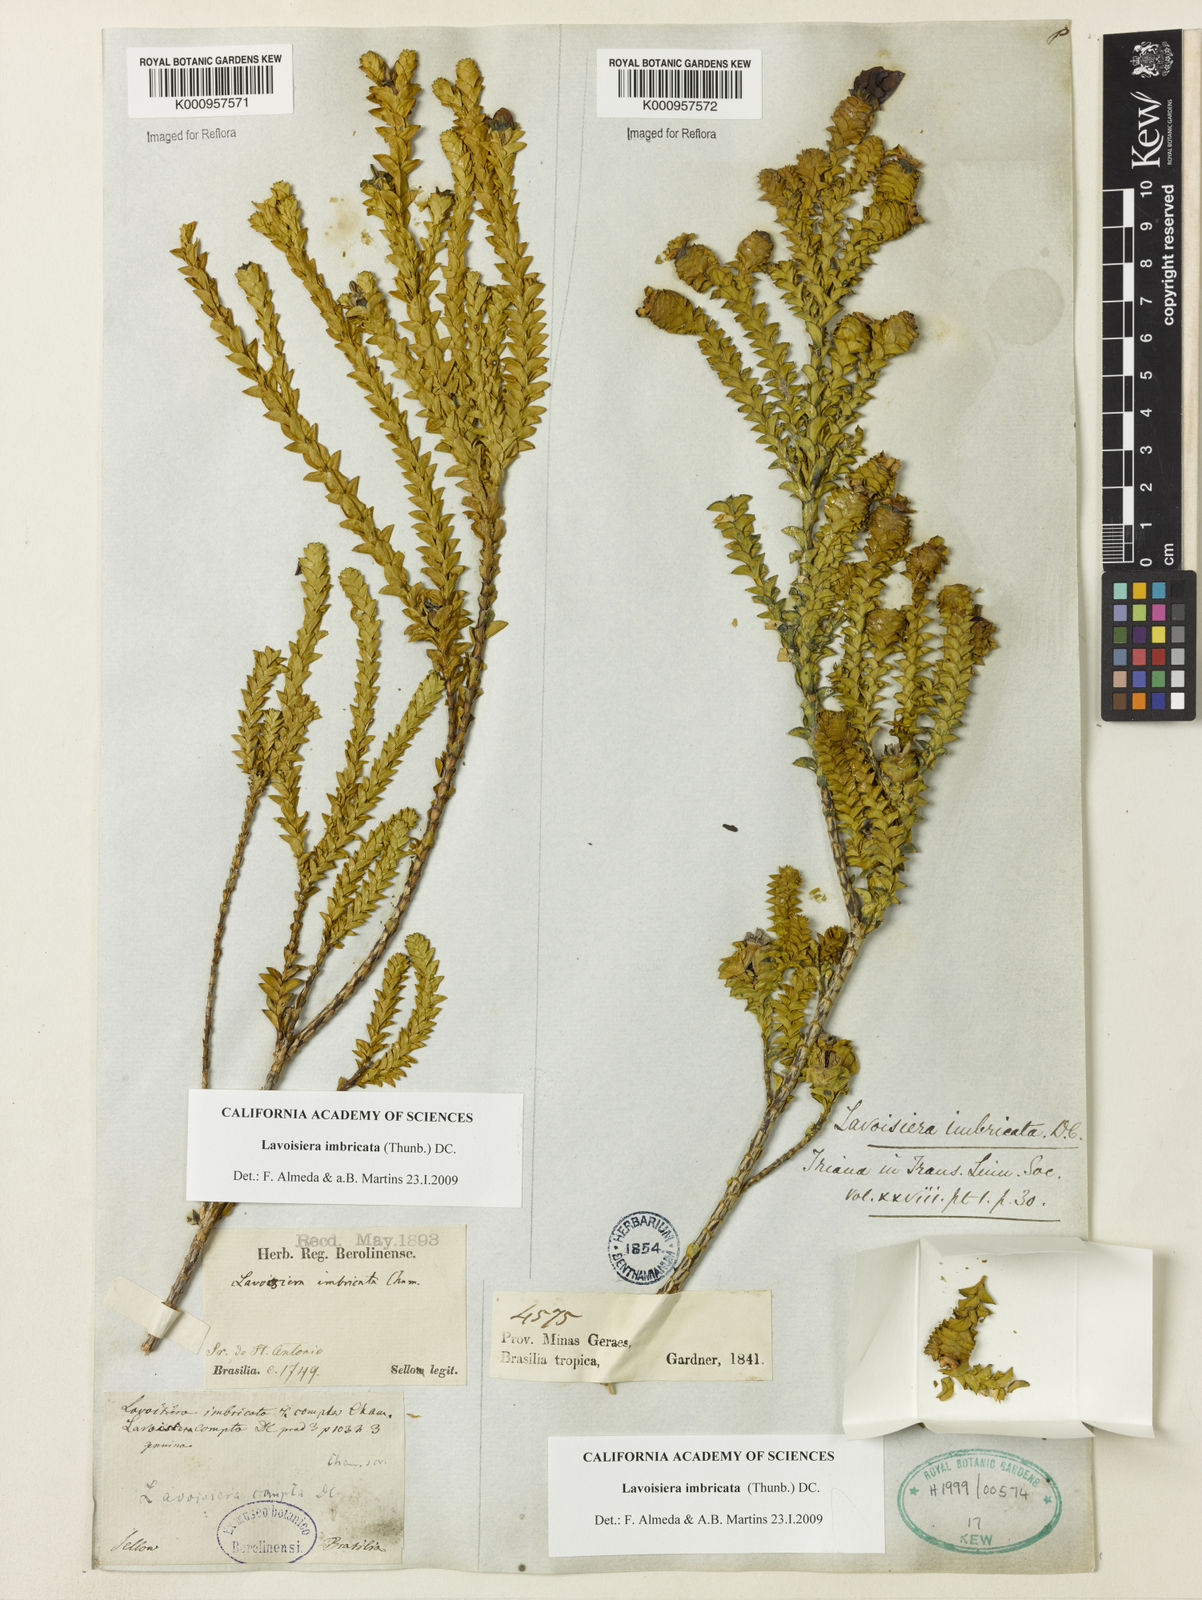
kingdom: Plantae
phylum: Tracheophyta
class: Magnoliopsida
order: Myrtales
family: Melastomataceae
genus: Microlicia
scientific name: Microlicia cataphracta
